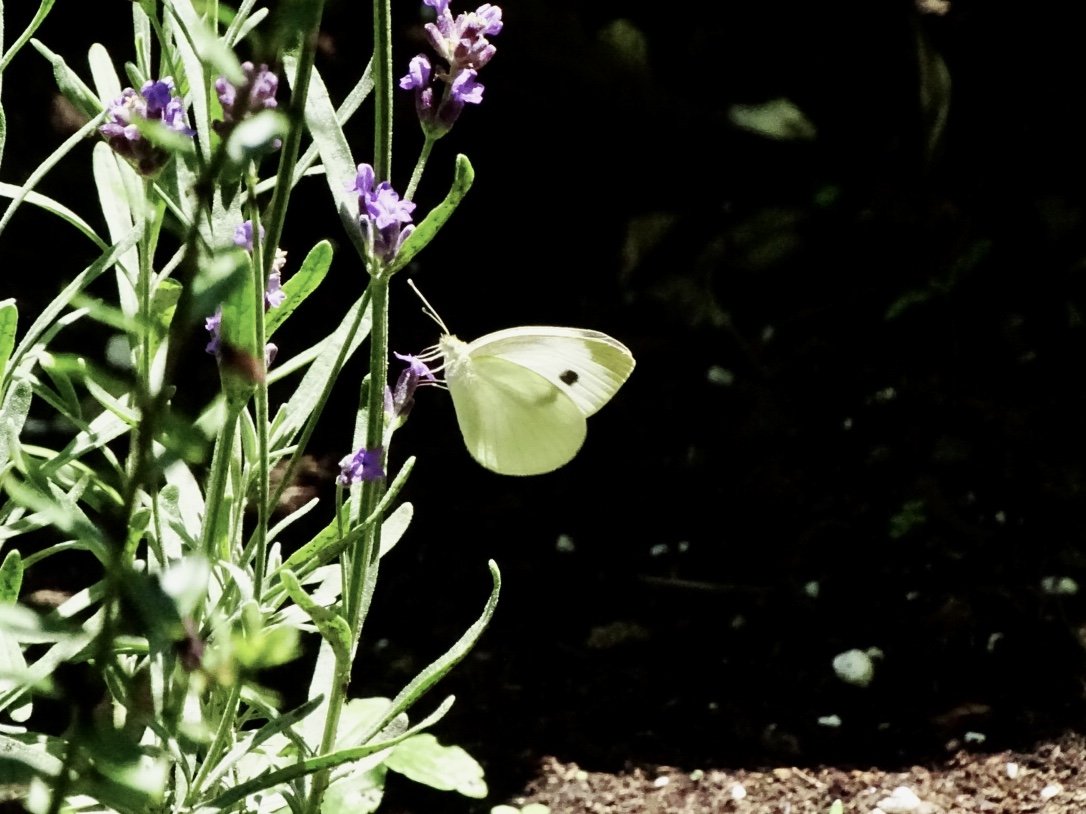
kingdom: Animalia
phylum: Arthropoda
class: Insecta
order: Lepidoptera
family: Pieridae
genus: Pieris
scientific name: Pieris rapae
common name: Cabbage White
